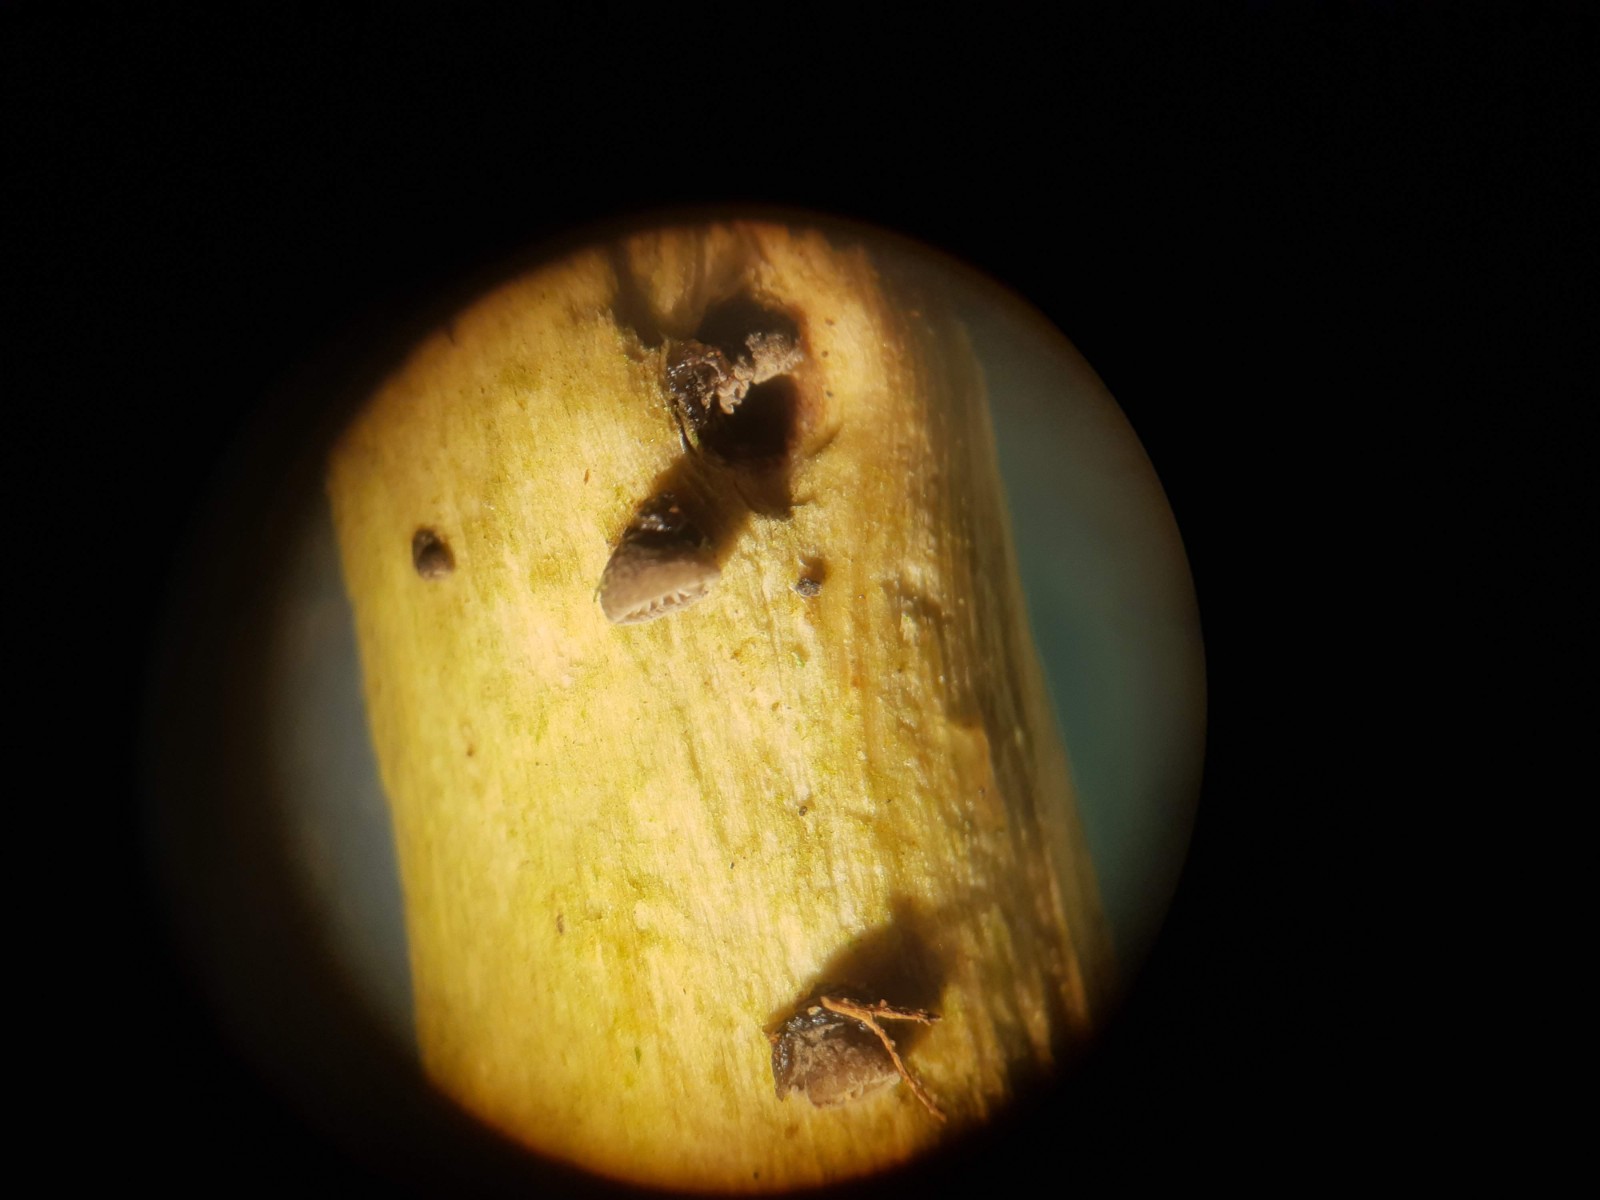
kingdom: Fungi
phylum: Basidiomycota
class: Agaricomycetes
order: Agaricales
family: Pleurotaceae
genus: Resupinatus
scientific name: Resupinatus trichotis
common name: mørkfiltet barkhat
